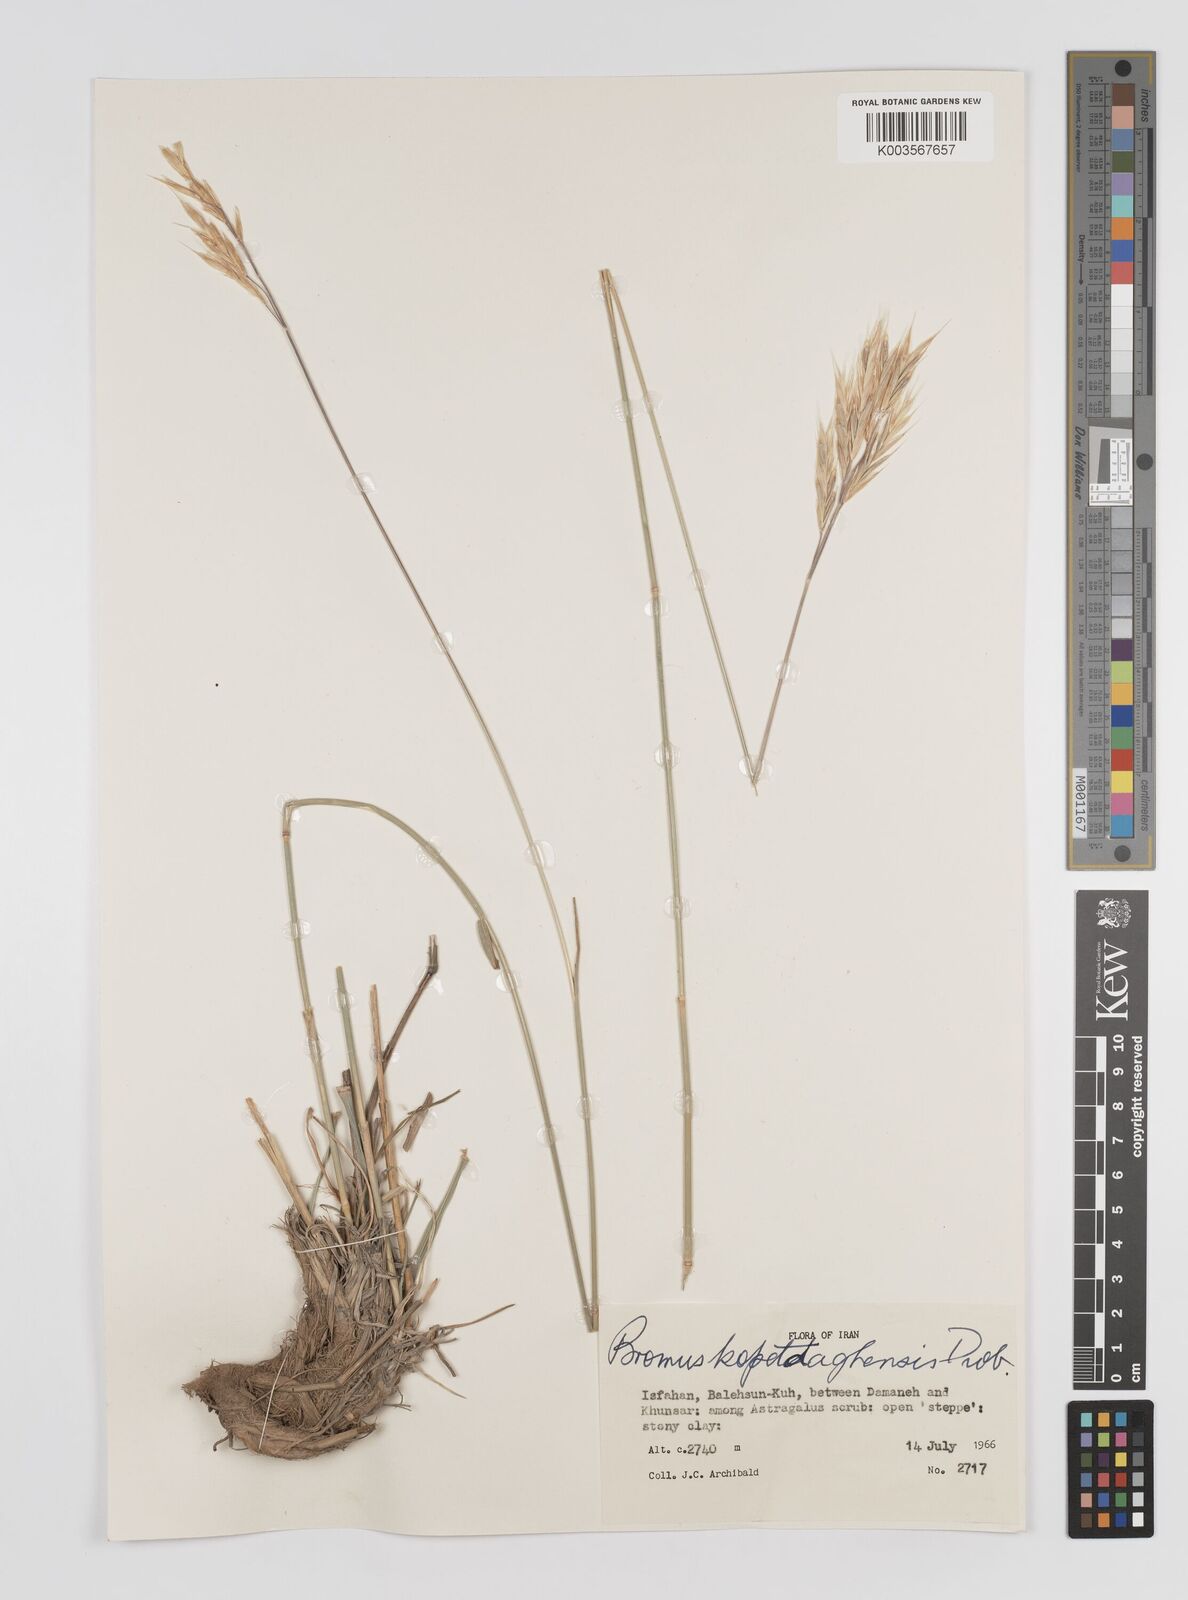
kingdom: Plantae
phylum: Tracheophyta
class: Liliopsida
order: Poales
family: Poaceae
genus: Bromus
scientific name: Bromus kopetdagensis
